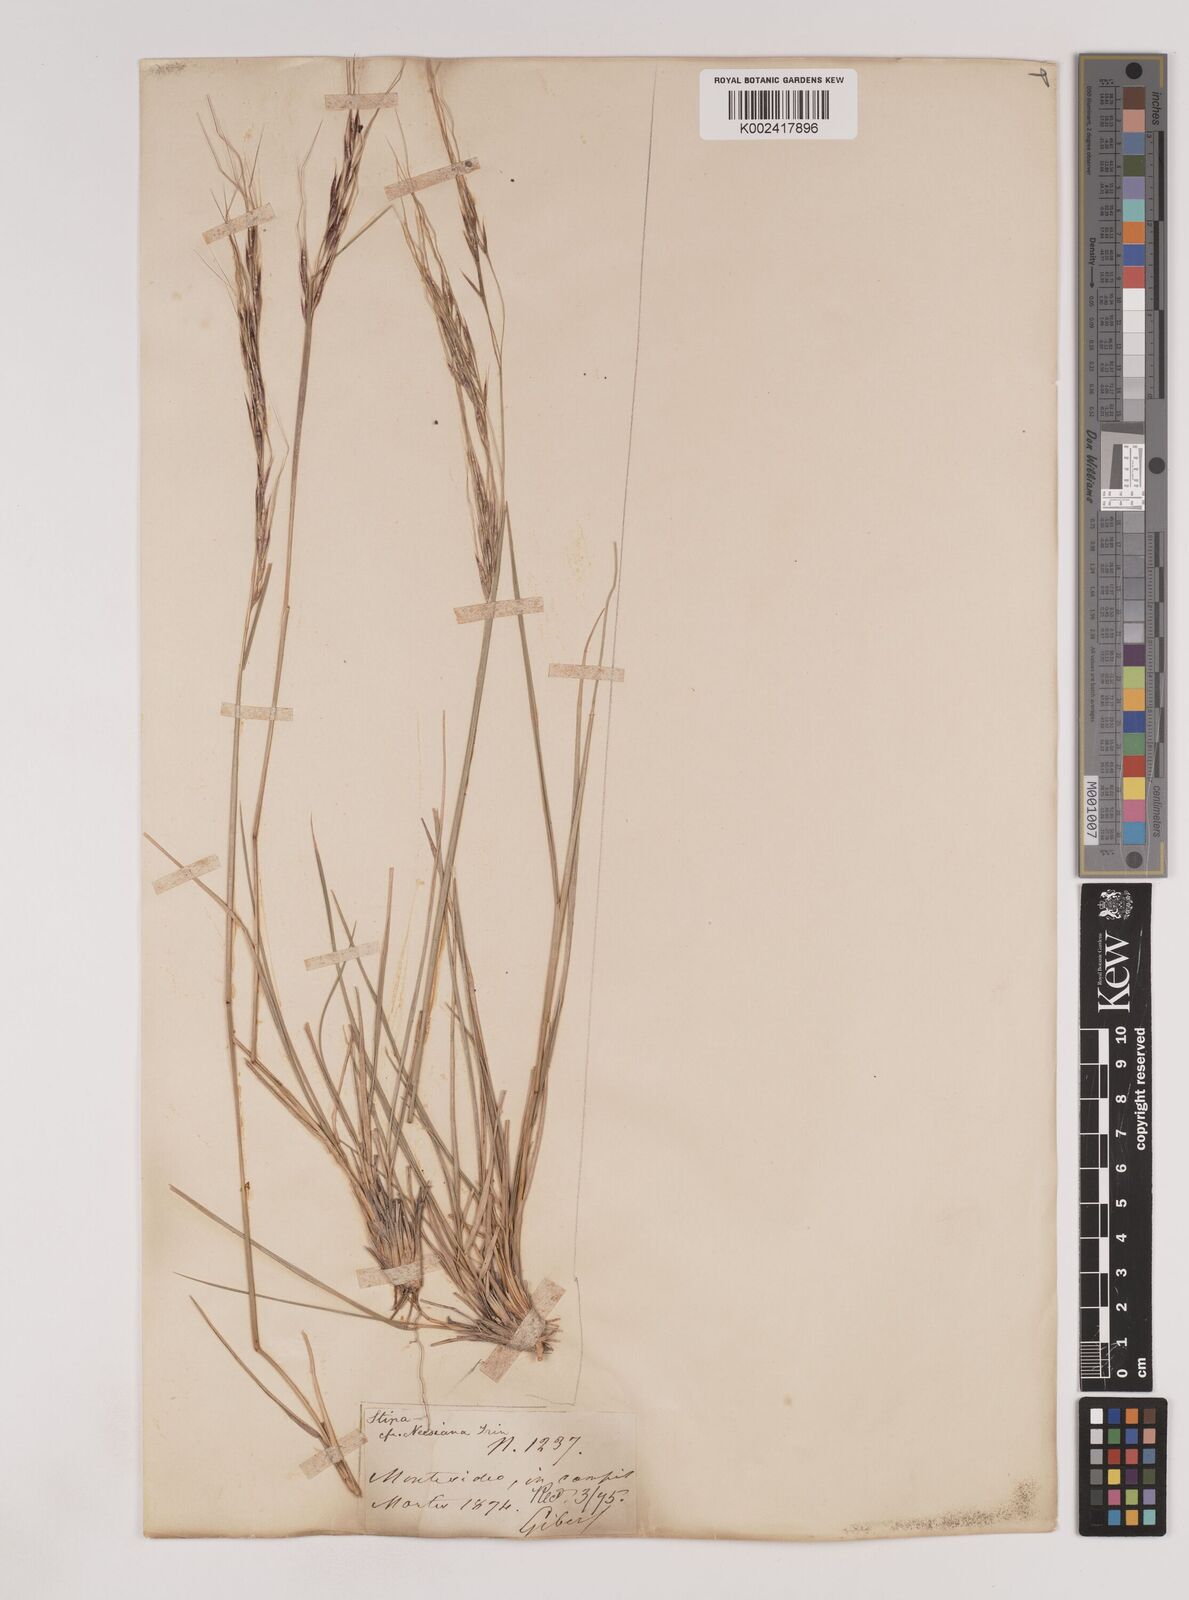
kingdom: Plantae
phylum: Tracheophyta
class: Liliopsida
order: Poales
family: Poaceae
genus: Nassella
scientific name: Nassella neesiana
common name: American needle-grass
